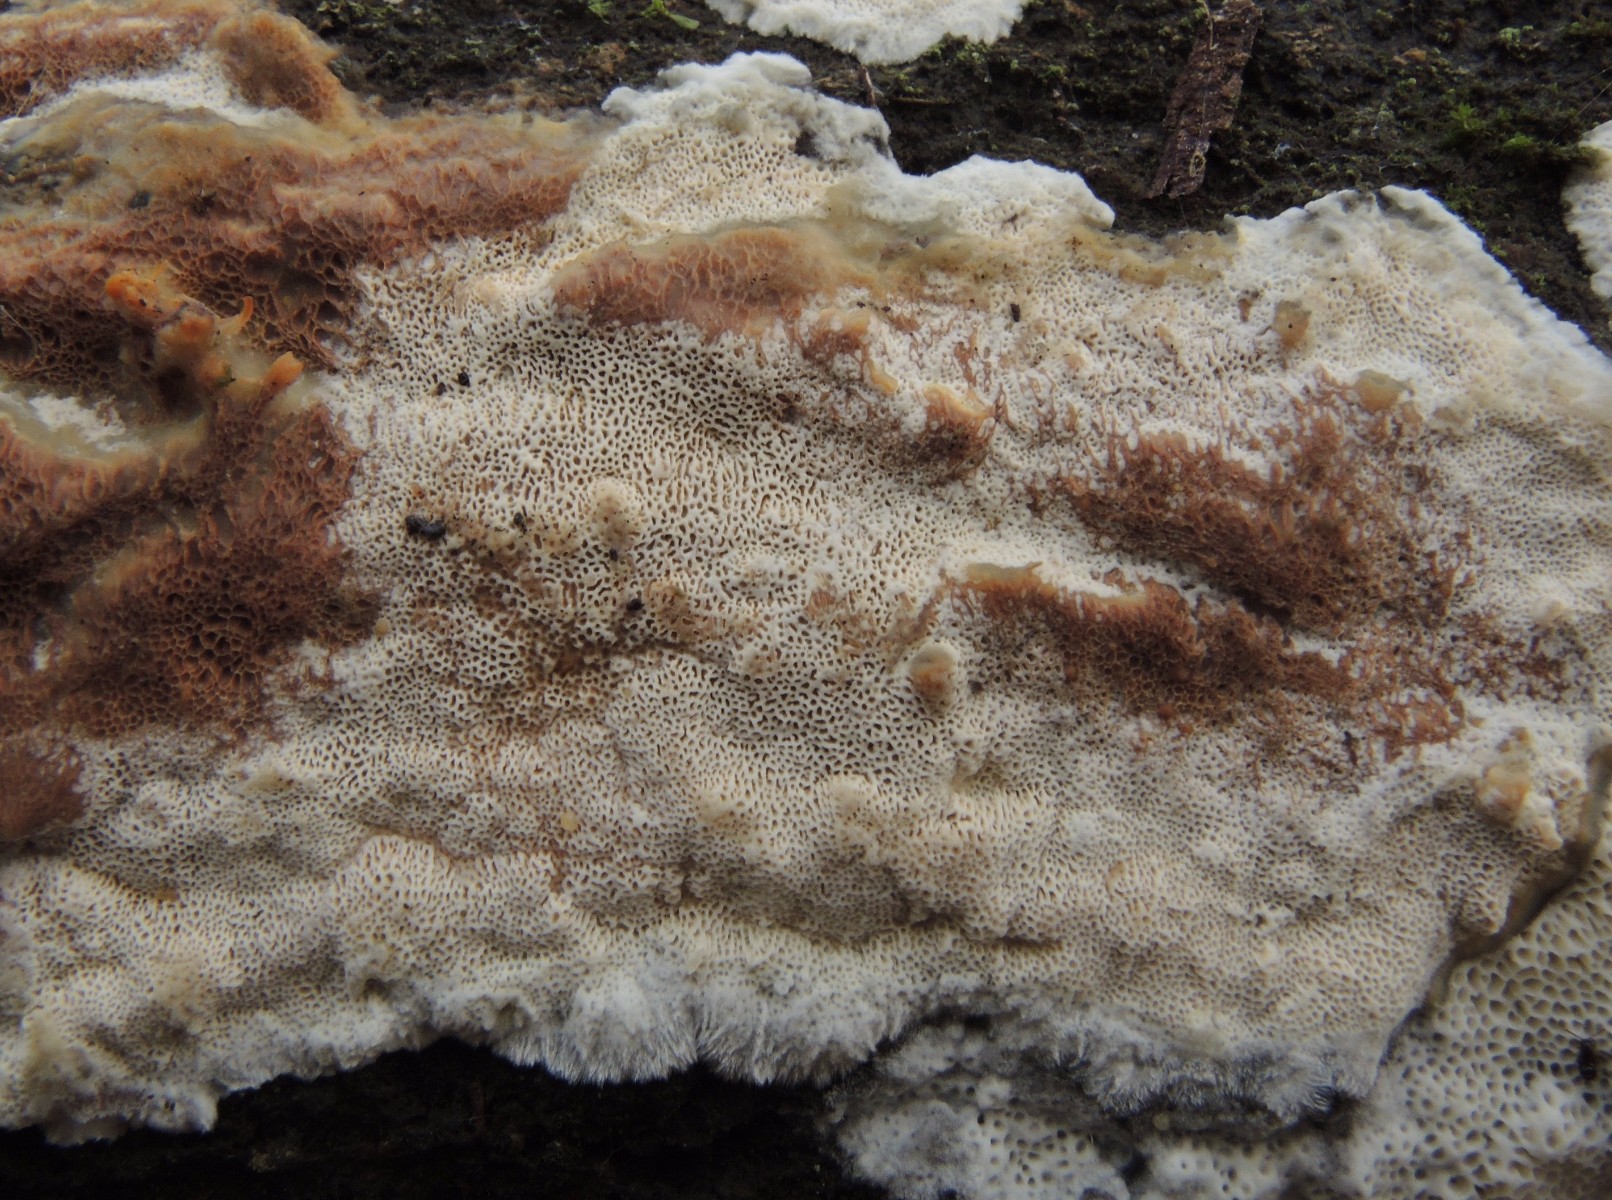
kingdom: Fungi
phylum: Basidiomycota
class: Agaricomycetes
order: Polyporales
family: Cerrenaceae
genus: Raduliporus
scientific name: Raduliporus aneirinus
